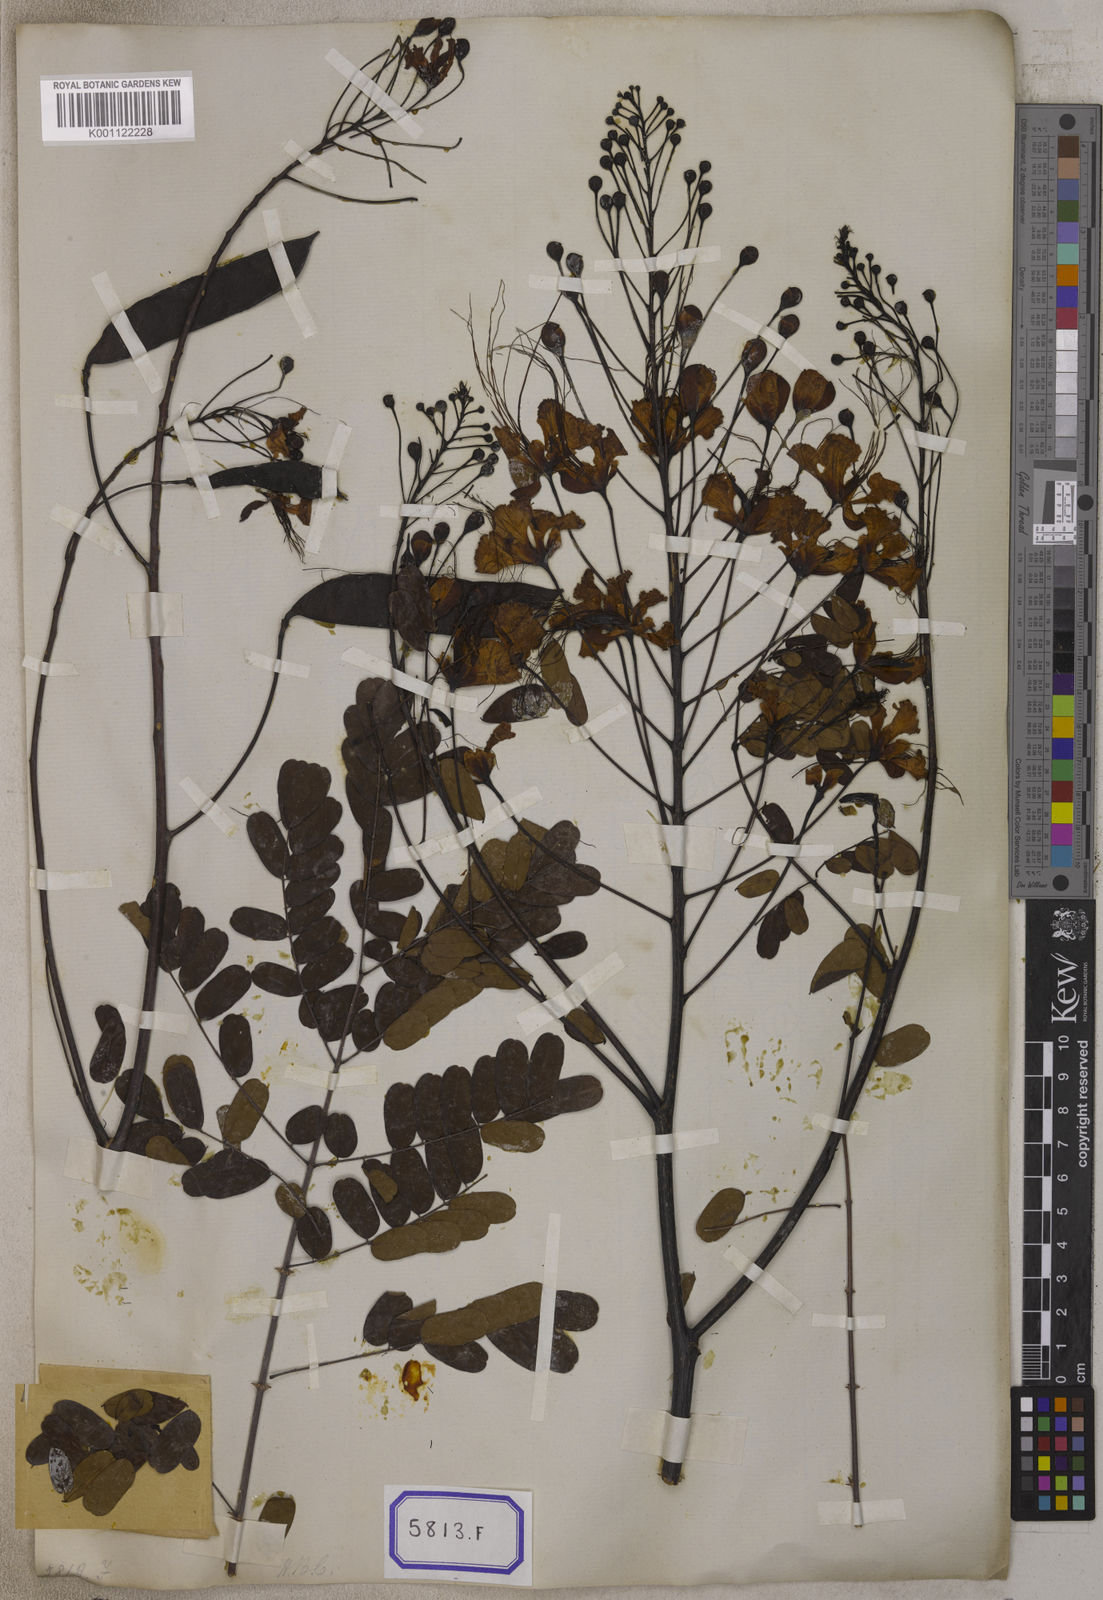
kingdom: Plantae
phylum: Tracheophyta
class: Magnoliopsida
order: Fabales
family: Fabaceae
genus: Caesalpinia
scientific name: Caesalpinia pulcherrima
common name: Pride-of-barbados
